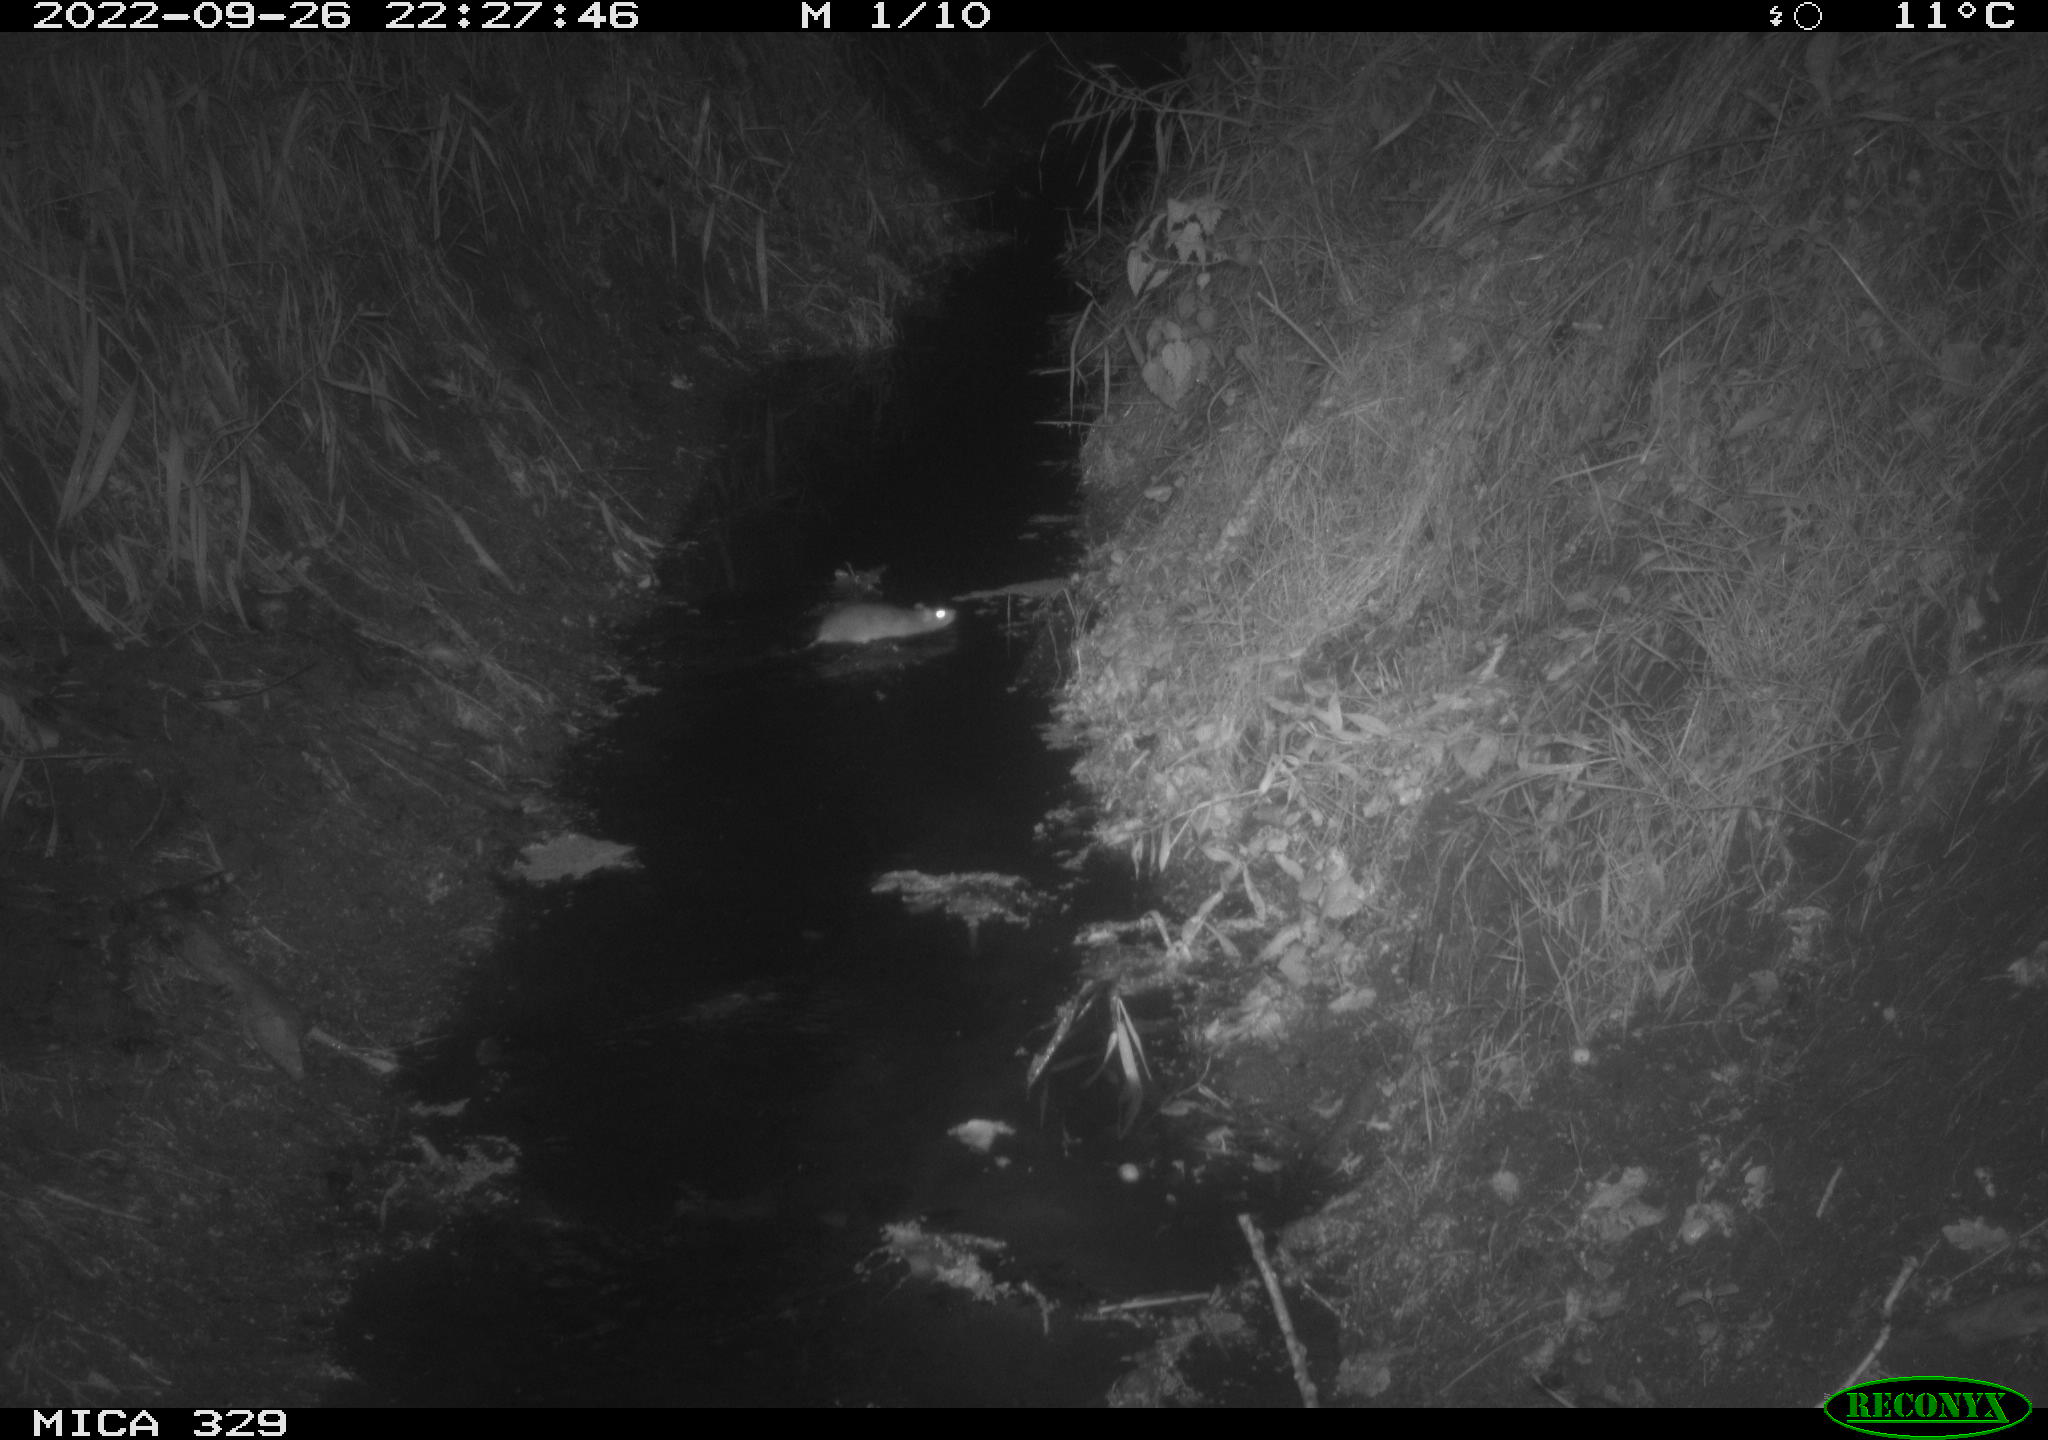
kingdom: Animalia
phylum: Chordata
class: Mammalia
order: Rodentia
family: Muridae
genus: Rattus
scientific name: Rattus norvegicus
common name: Brown rat
